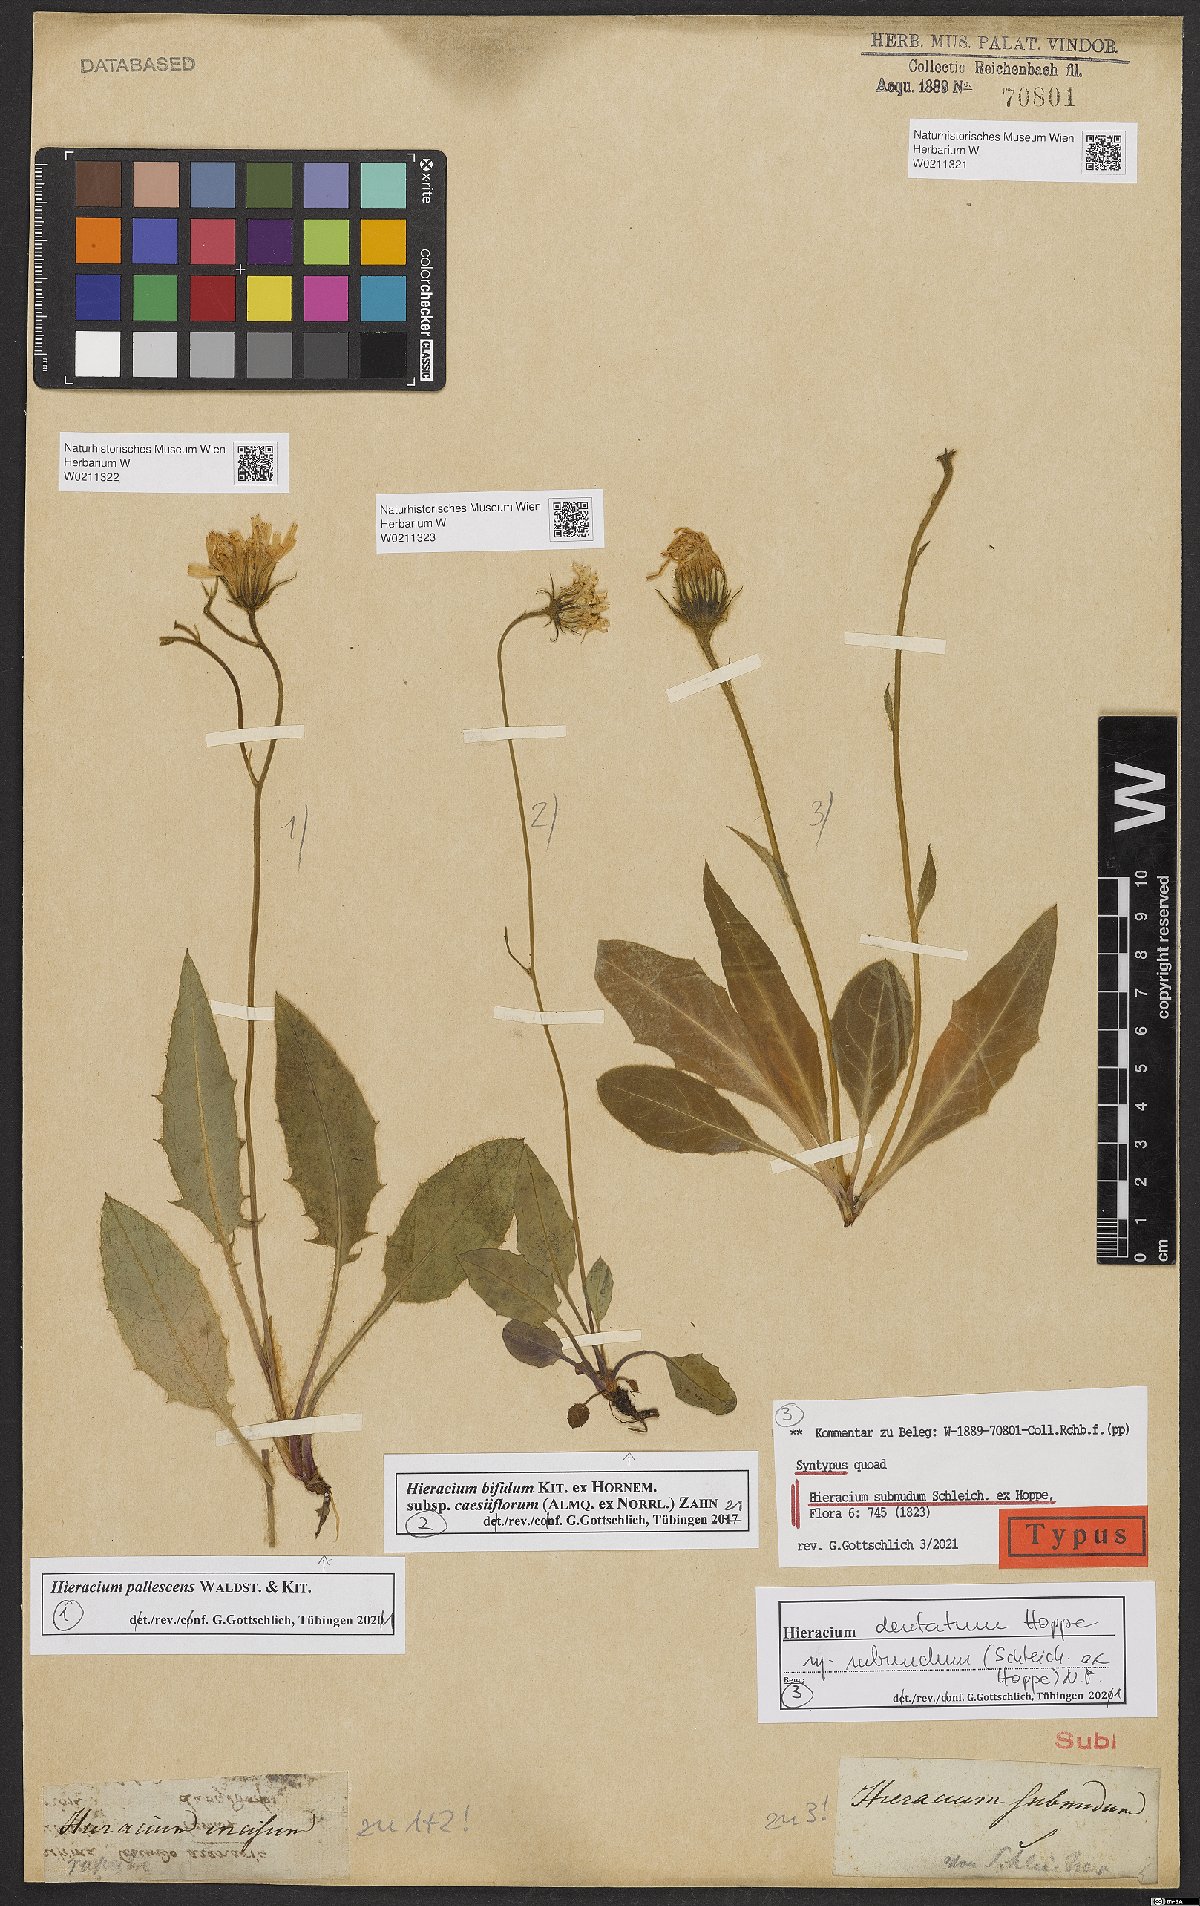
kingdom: Plantae
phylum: Tracheophyta
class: Magnoliopsida
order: Asterales
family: Asteraceae
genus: Hieracium
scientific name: Hieracium pallescens
